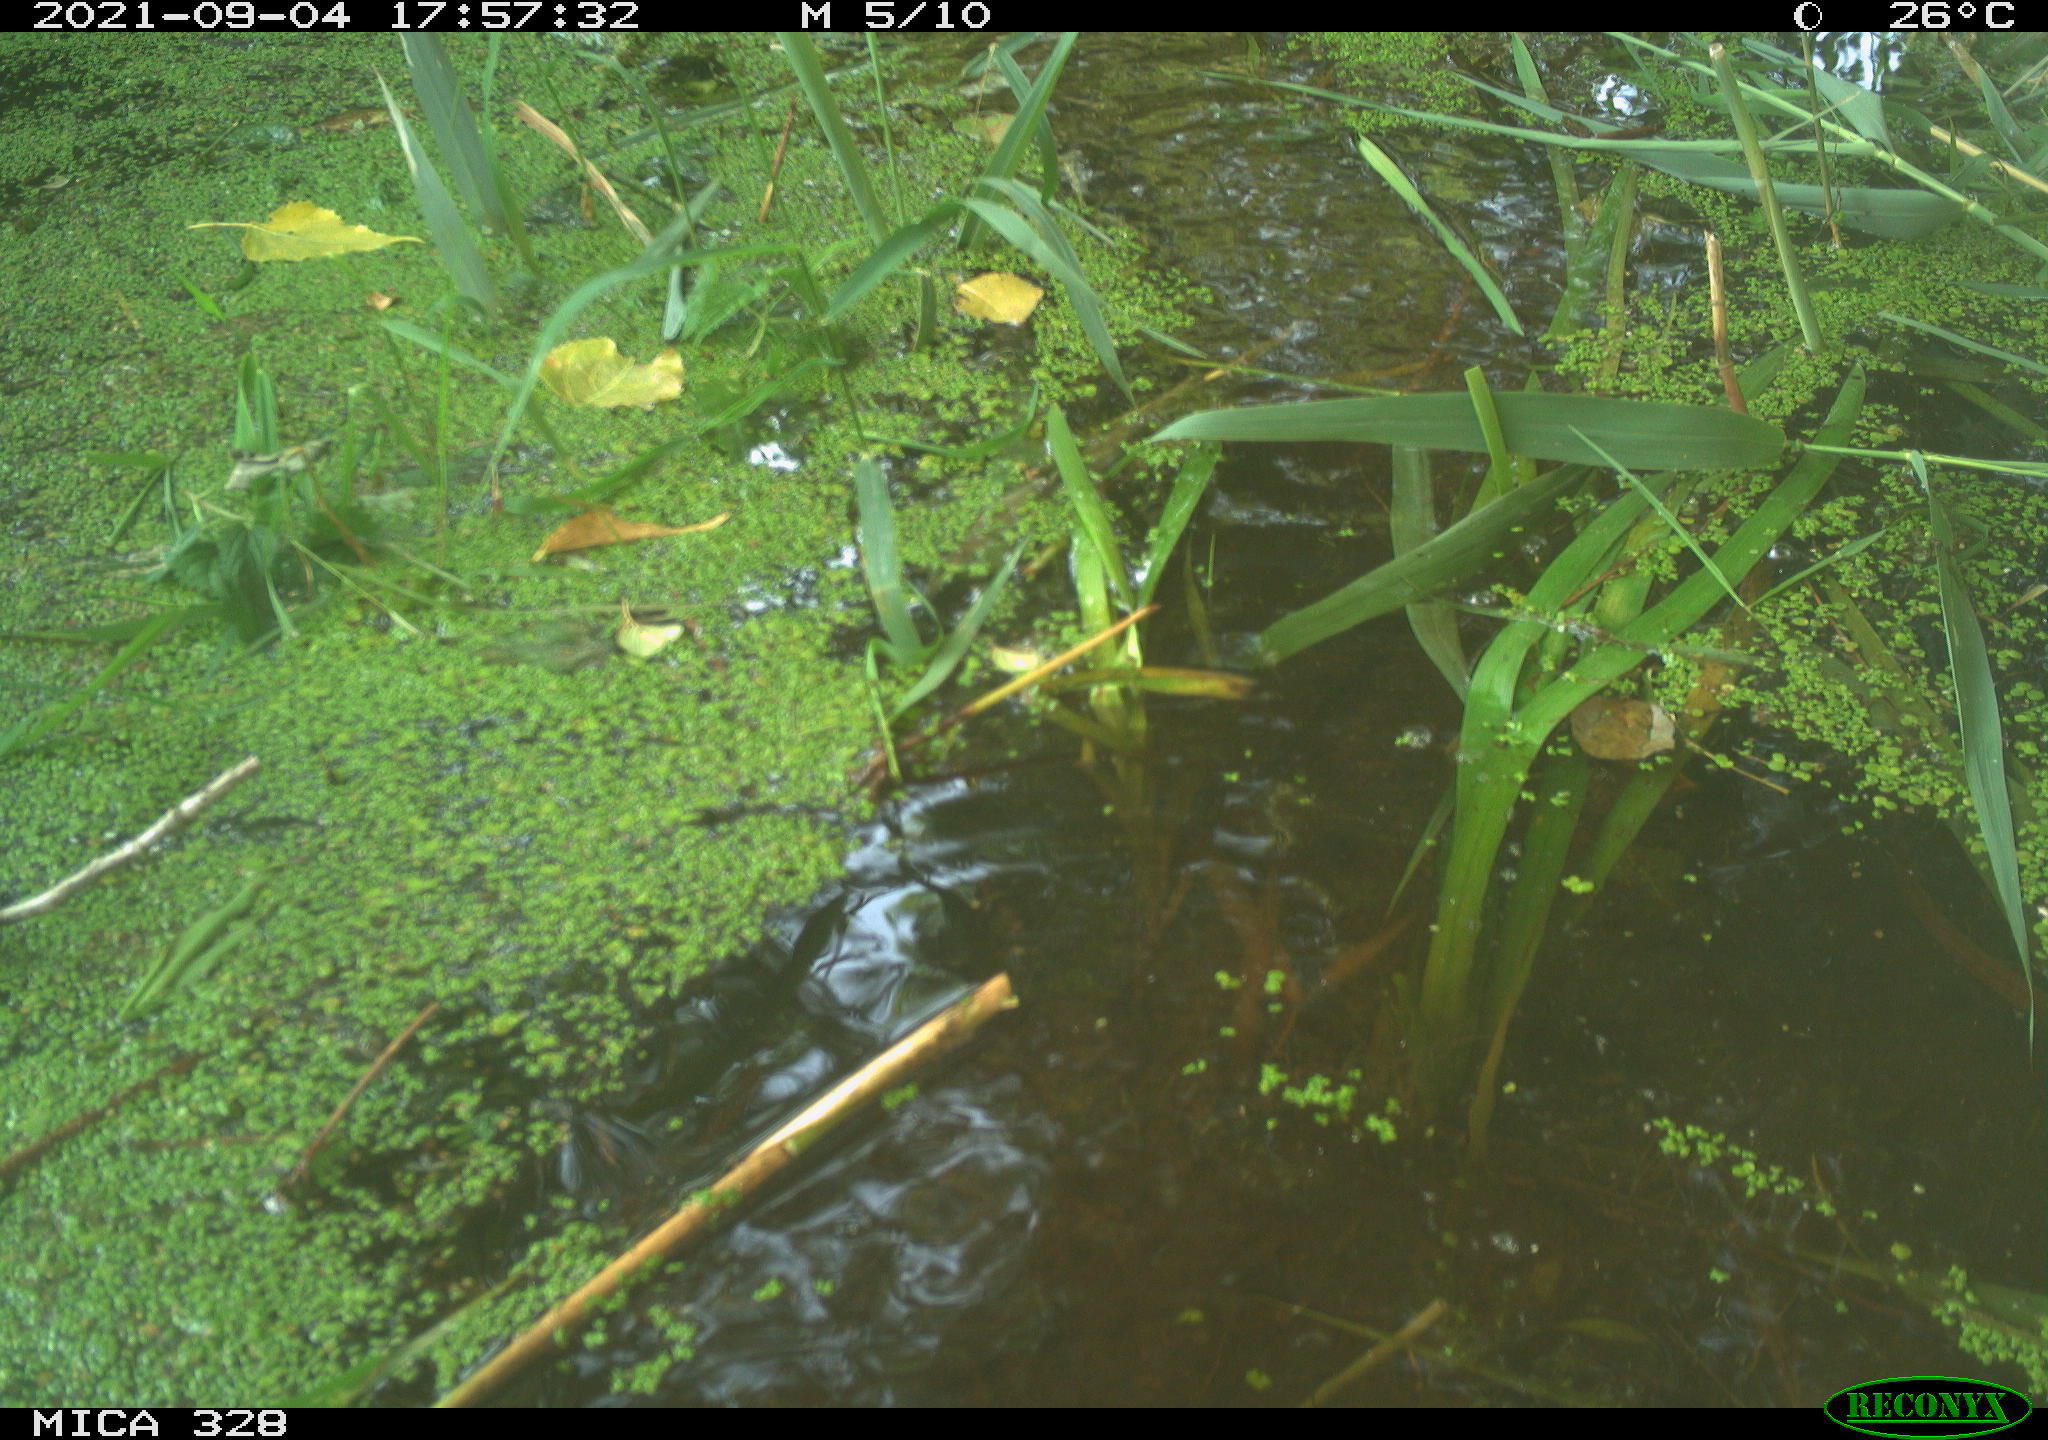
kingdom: Animalia
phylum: Chordata
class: Mammalia
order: Rodentia
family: Cricetidae
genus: Ondatra
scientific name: Ondatra zibethicus
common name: Muskrat
